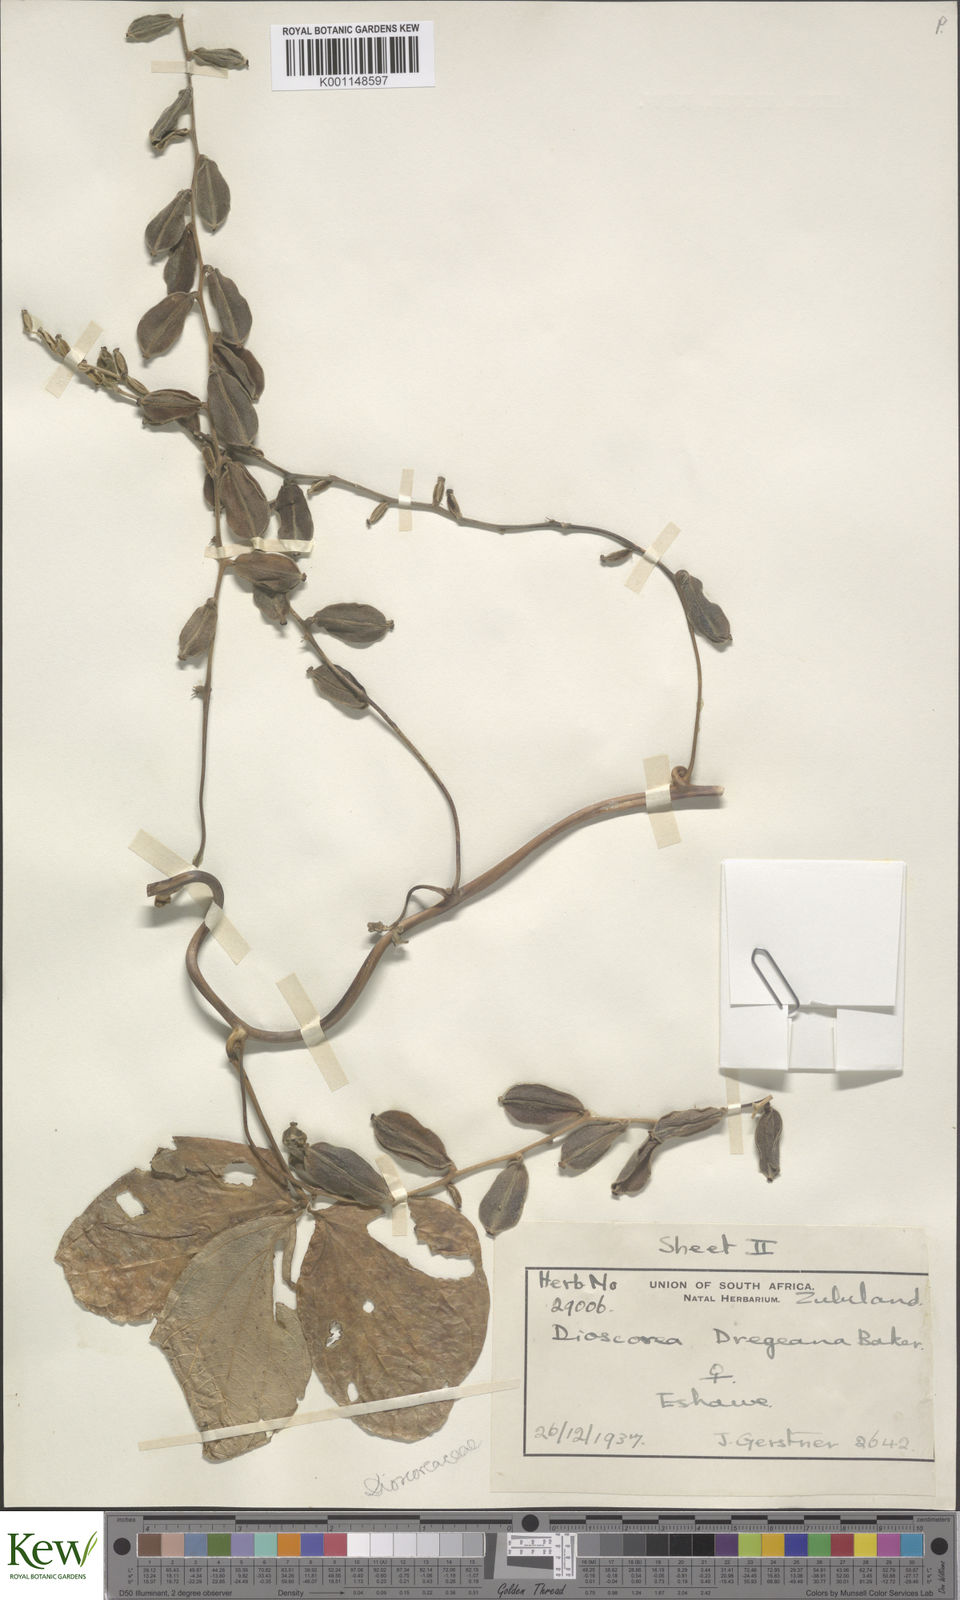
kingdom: Plantae
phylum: Tracheophyta
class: Liliopsida
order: Dioscoreales
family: Dioscoreaceae
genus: Dioscorea
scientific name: Dioscorea dregeana
